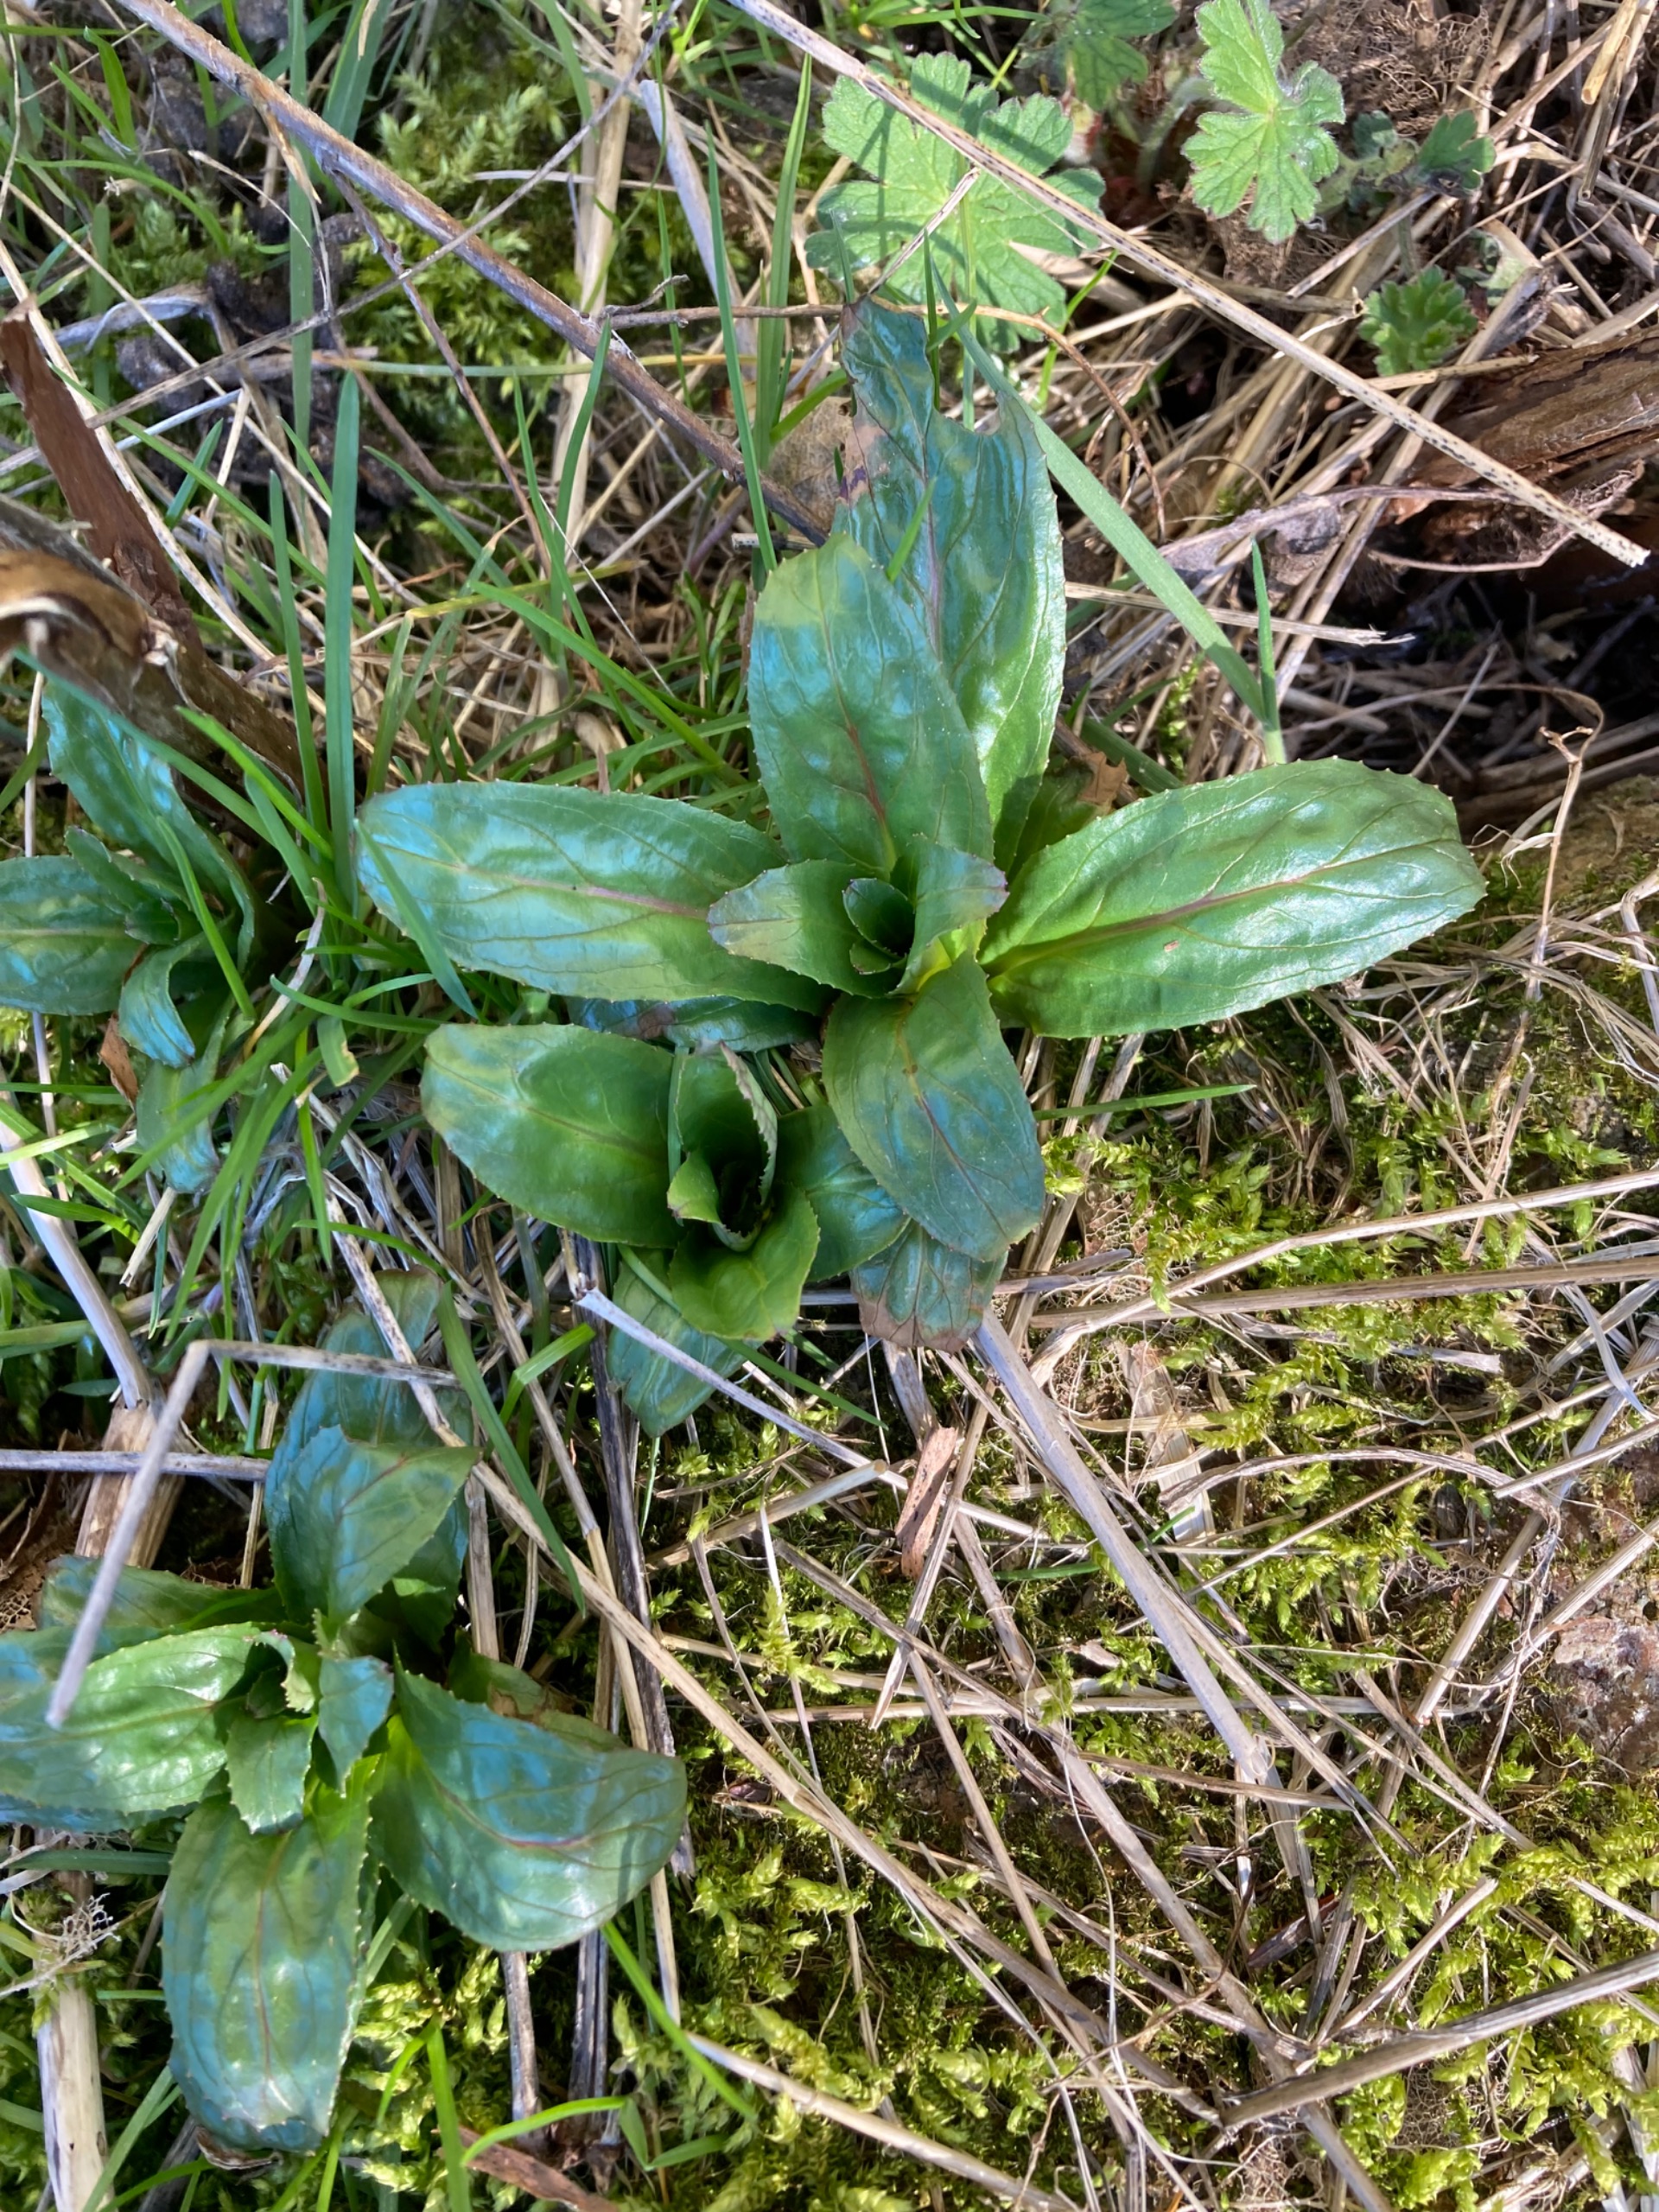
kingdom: Plantae
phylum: Tracheophyta
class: Magnoliopsida
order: Myrtales
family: Onagraceae
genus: Epilobium
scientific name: Epilobium hirsutum
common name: Lådden dueurt
